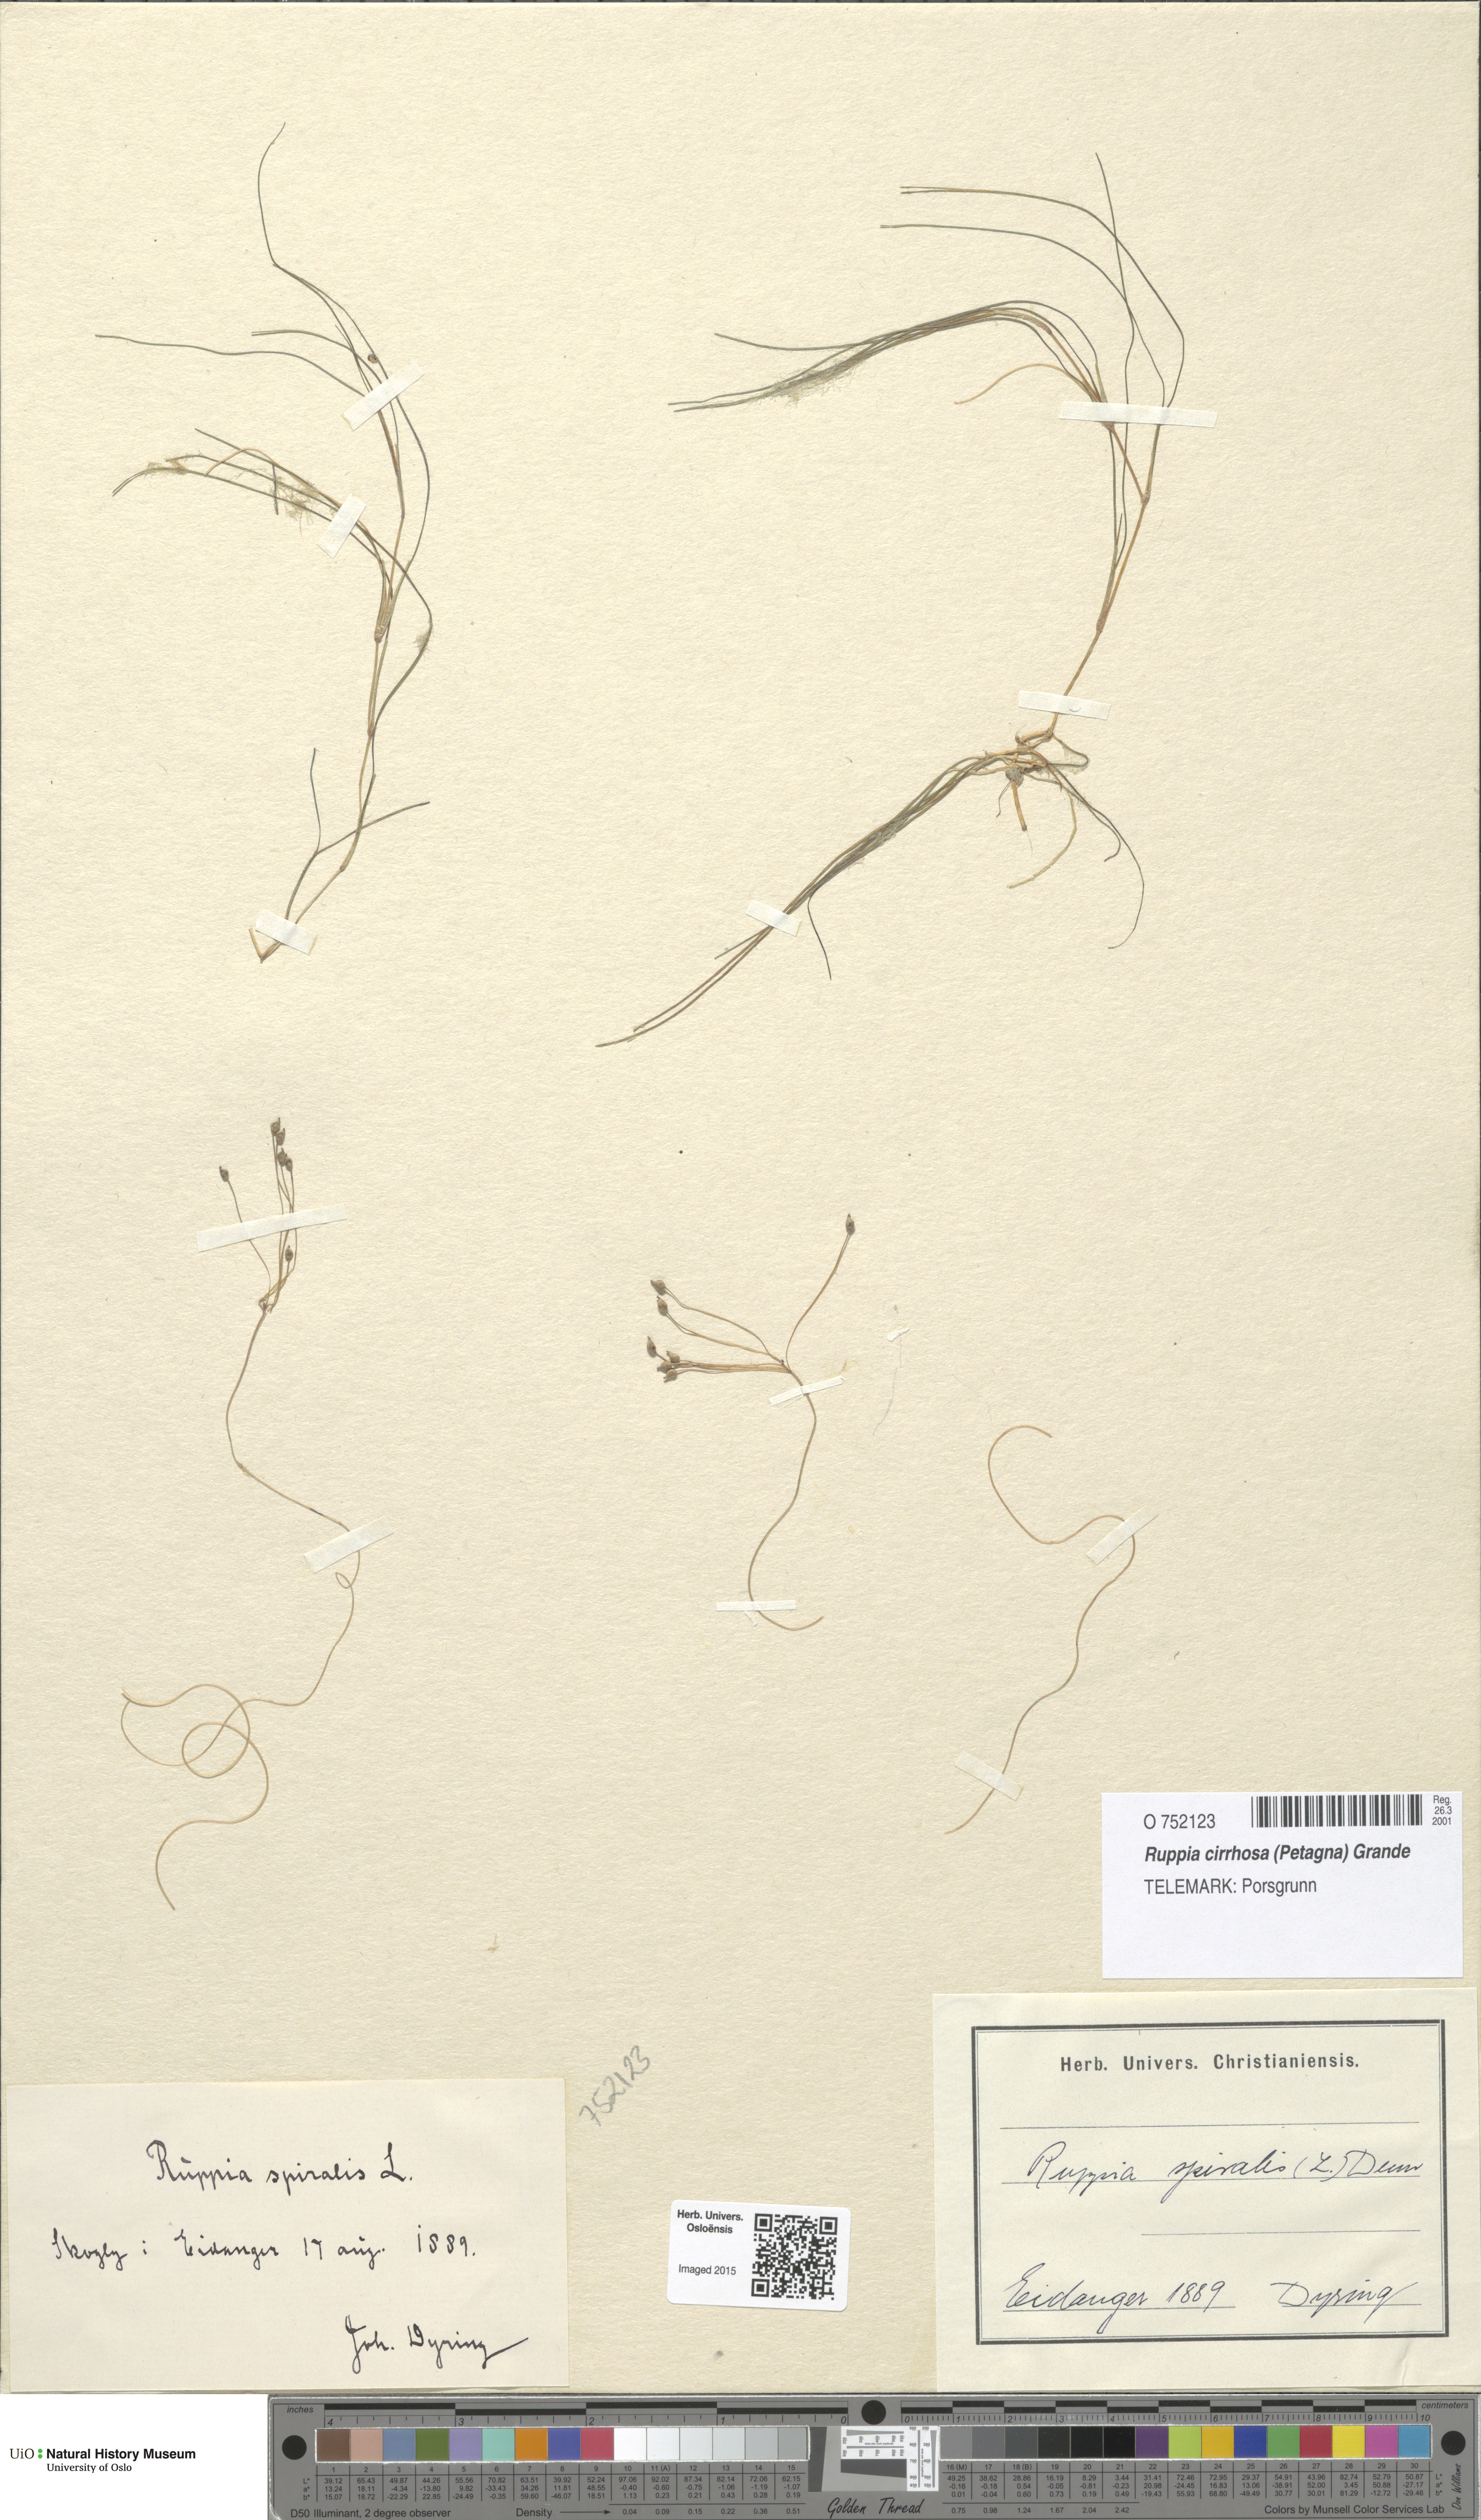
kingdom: Plantae
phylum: Tracheophyta
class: Liliopsida
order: Alismatales
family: Ruppiaceae
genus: Ruppia
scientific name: Ruppia cirrhosa
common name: Spiral tasselweed
